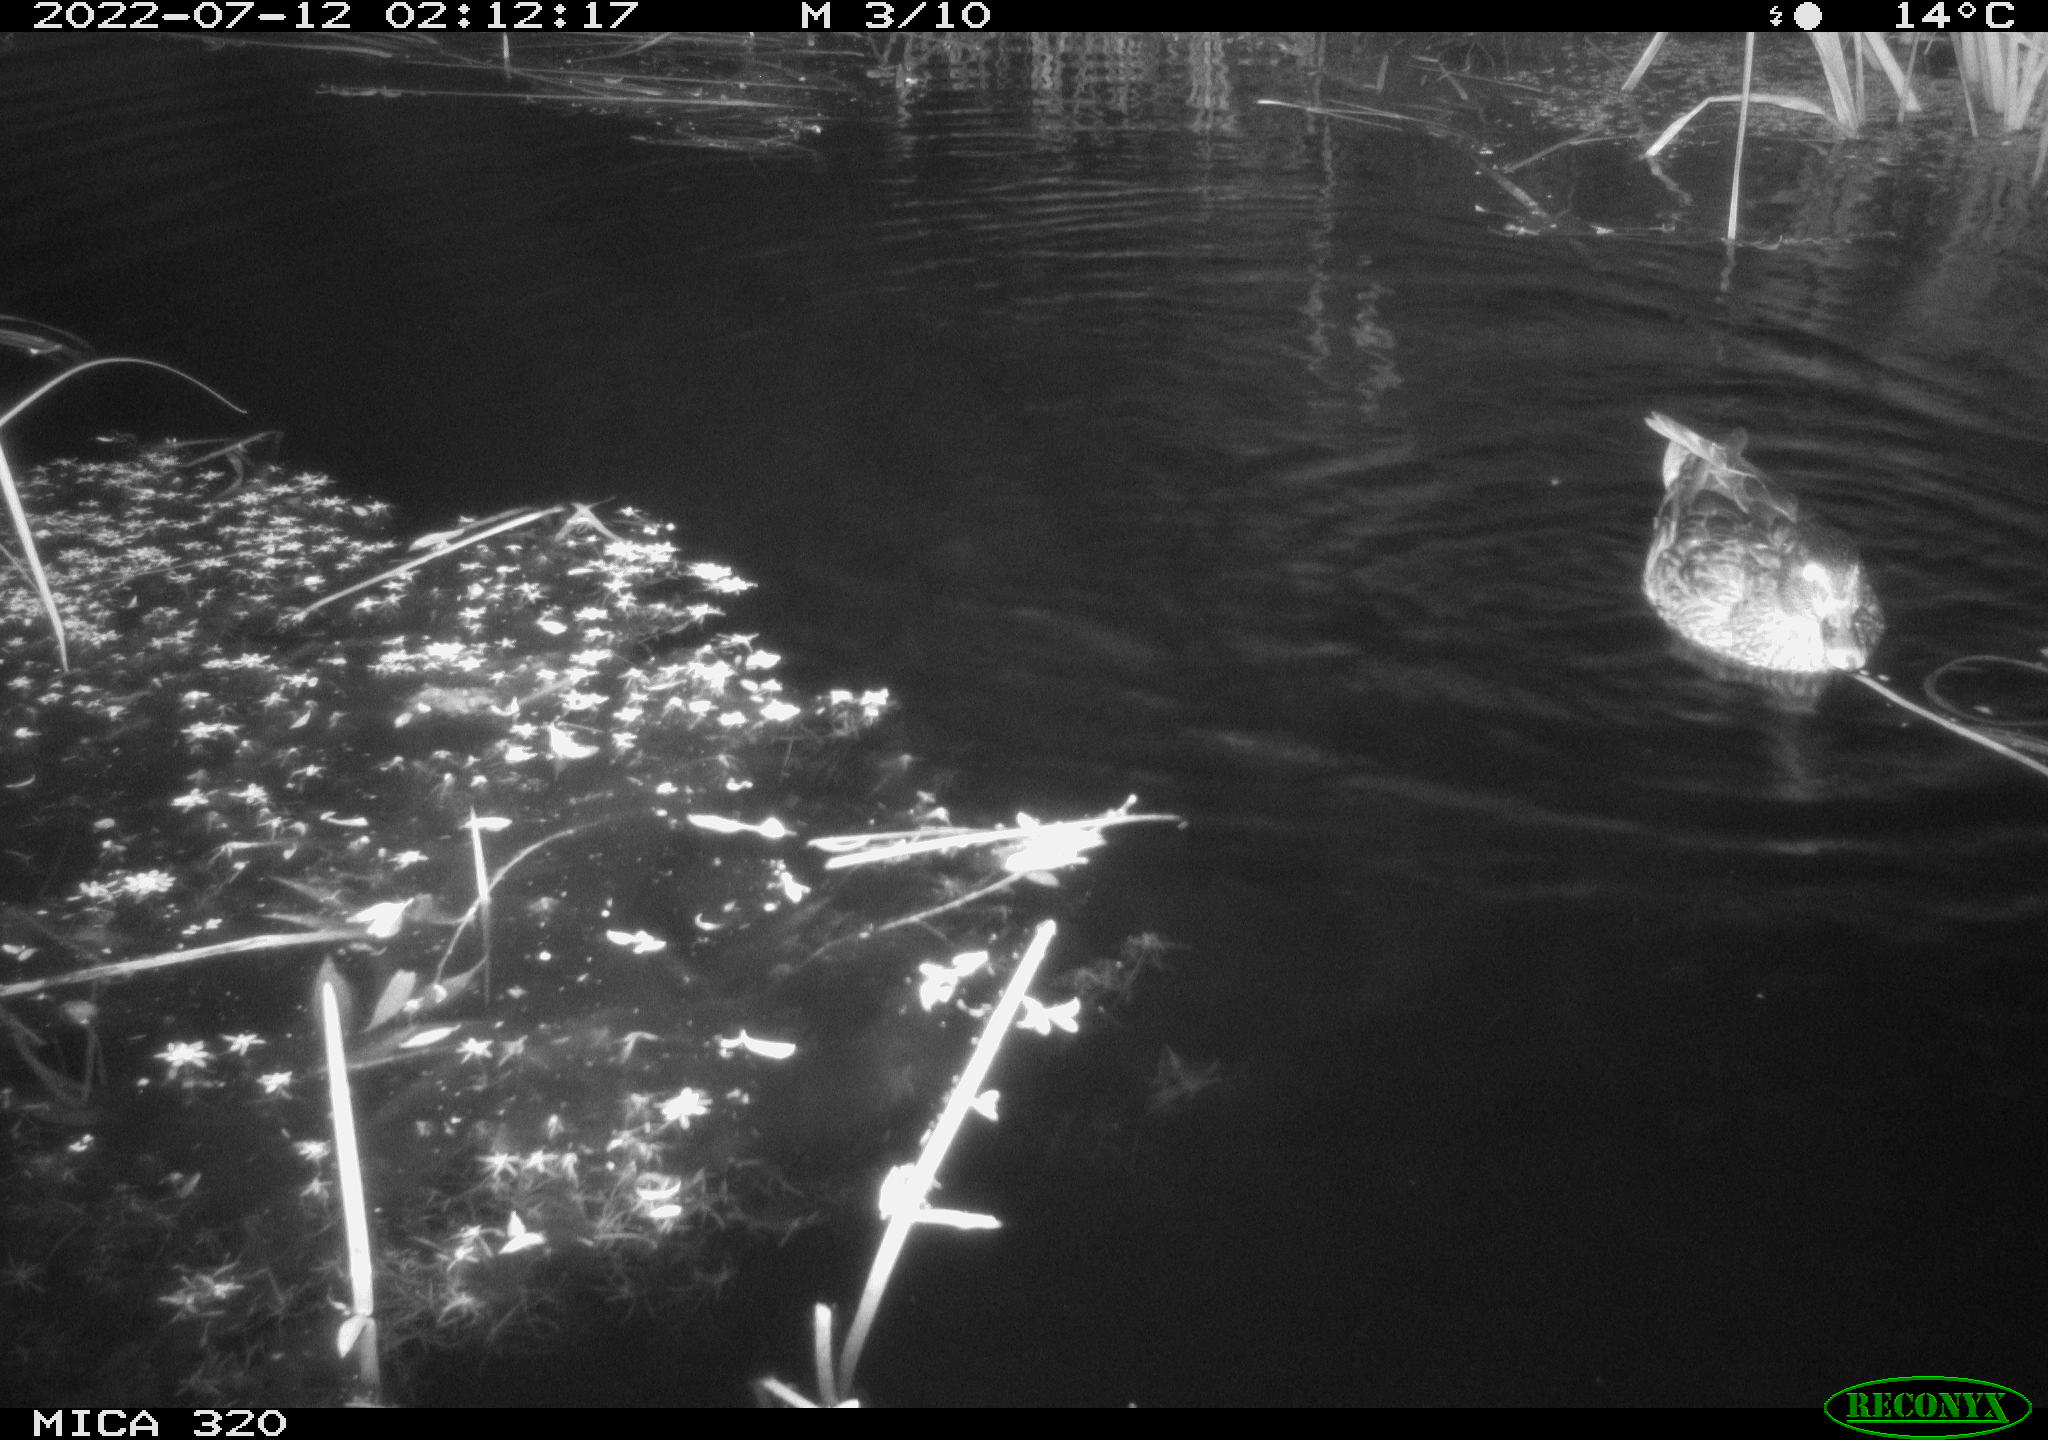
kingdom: Animalia
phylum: Chordata
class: Aves
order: Anseriformes
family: Anatidae
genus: Anas
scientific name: Anas platyrhynchos
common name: Mallard
